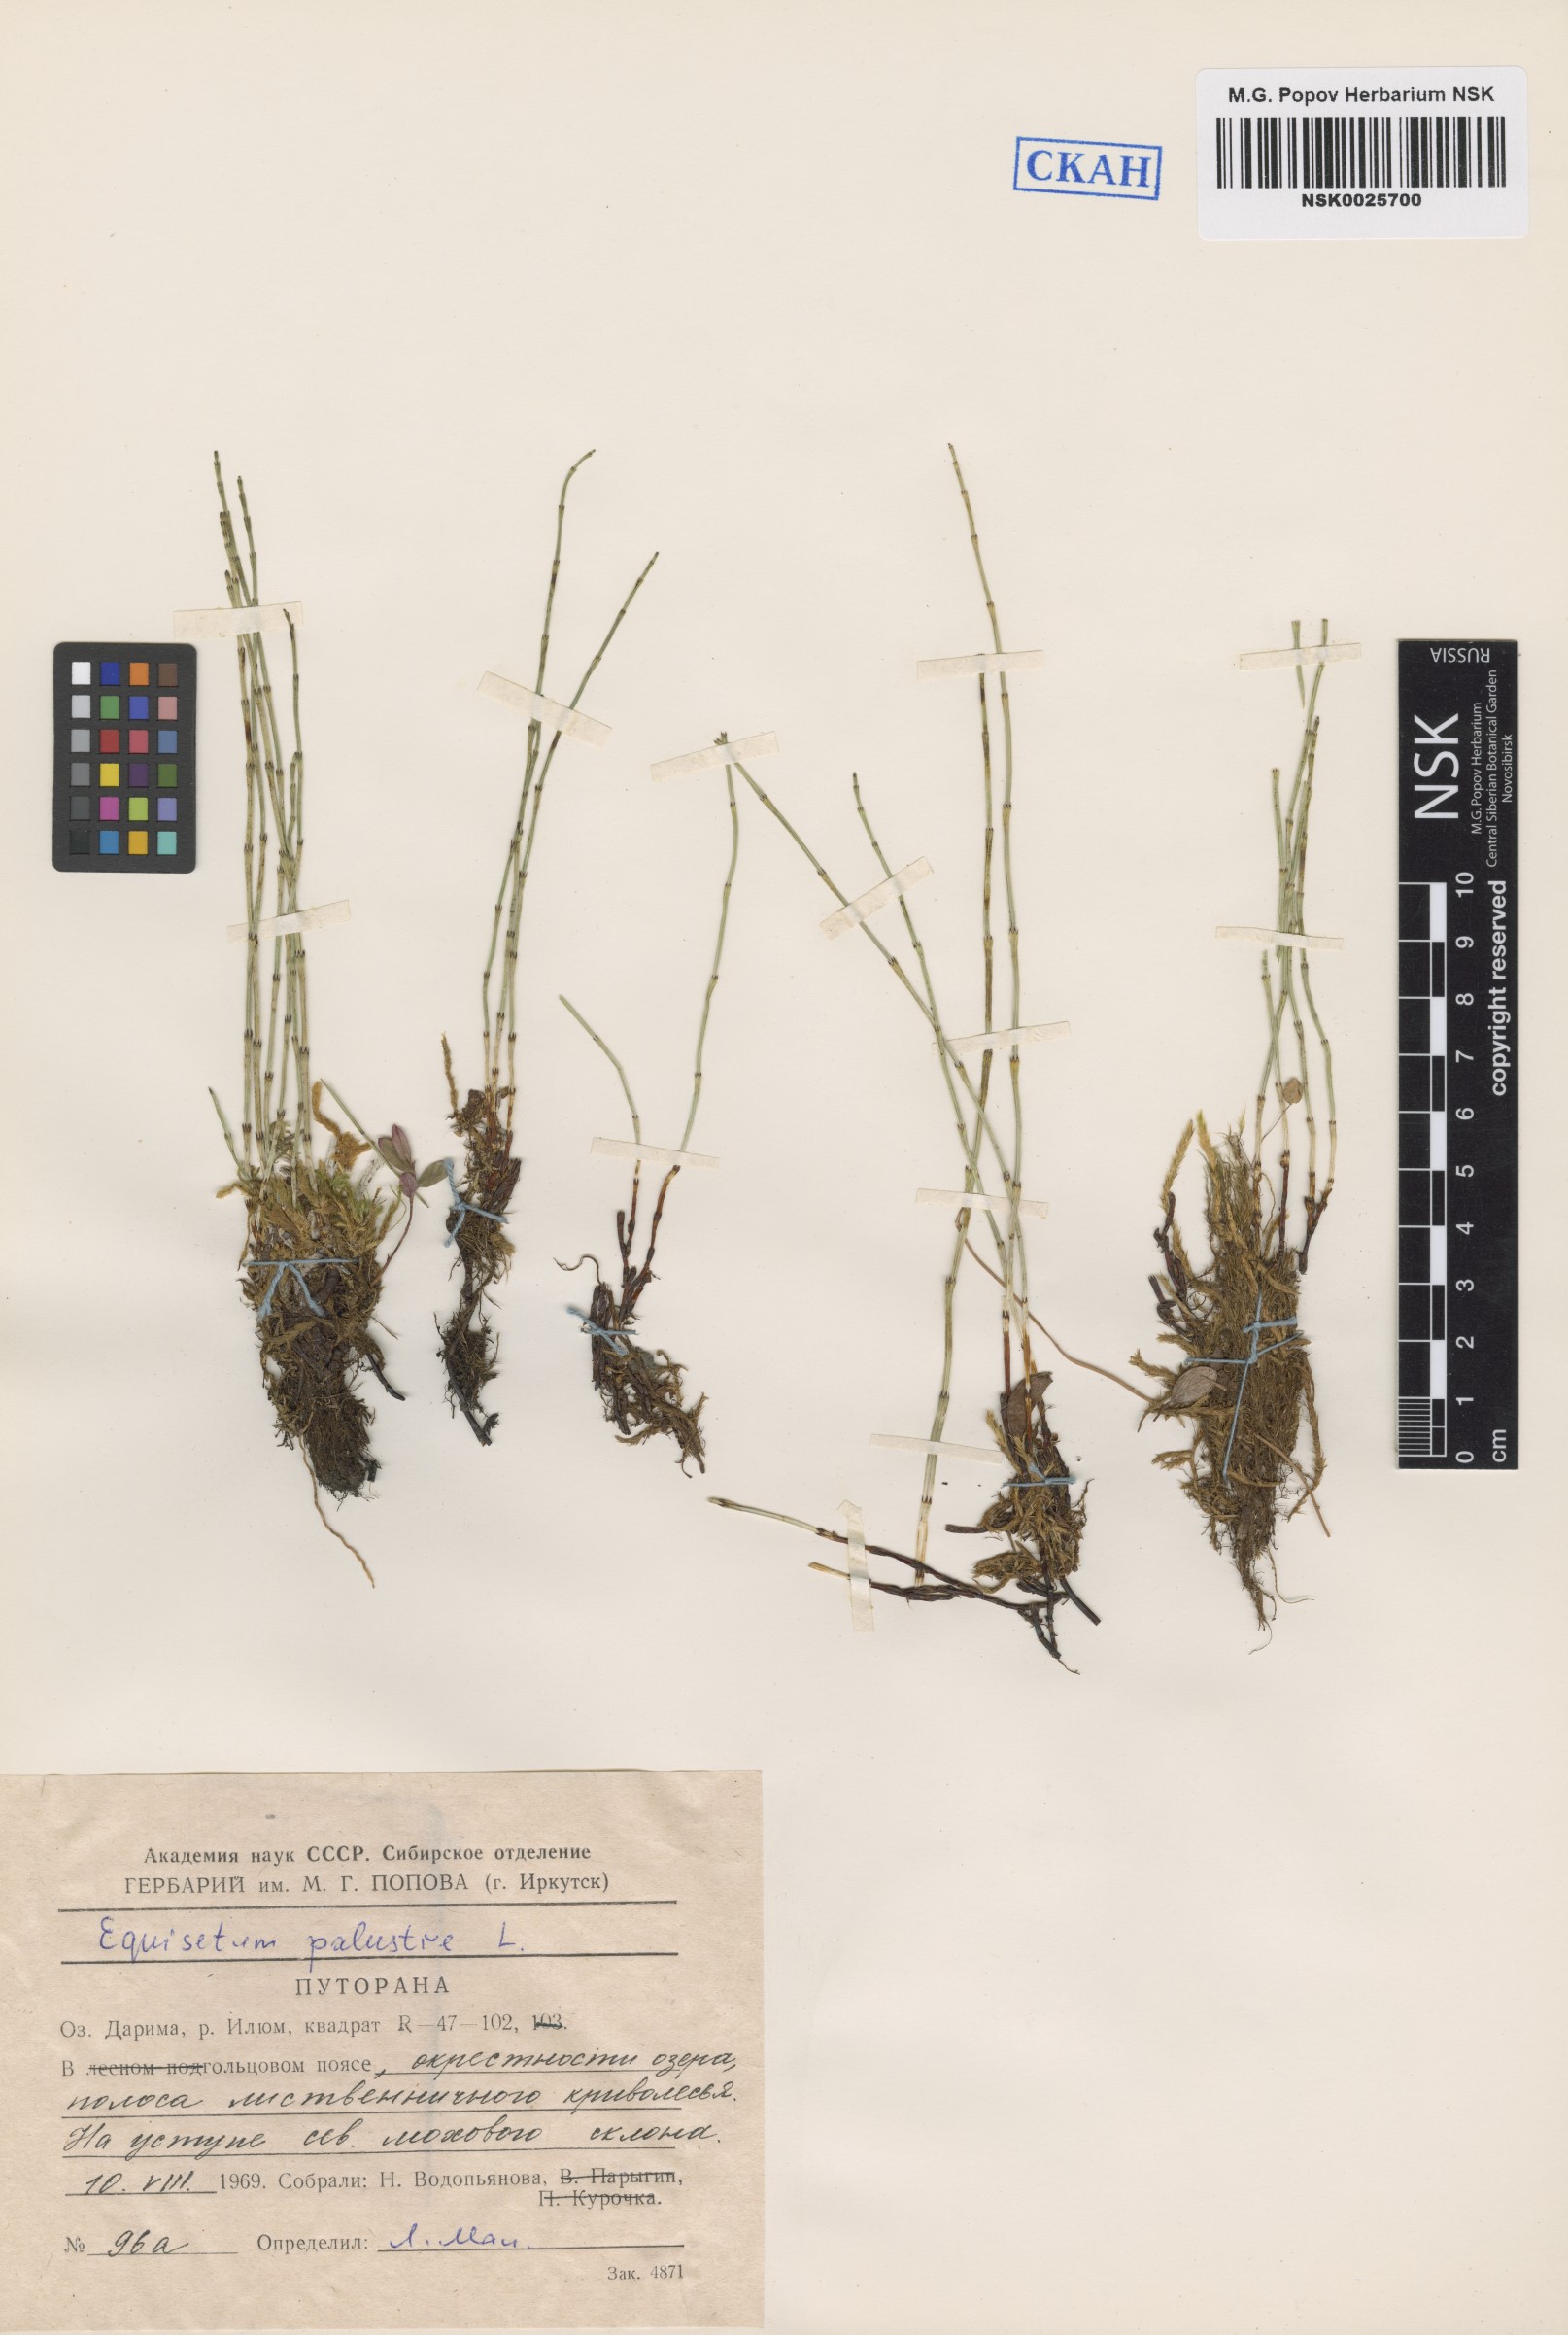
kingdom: Plantae
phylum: Tracheophyta
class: Polypodiopsida
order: Equisetales
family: Equisetaceae
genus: Equisetum
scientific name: Equisetum palustre
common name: Marsh horsetail
